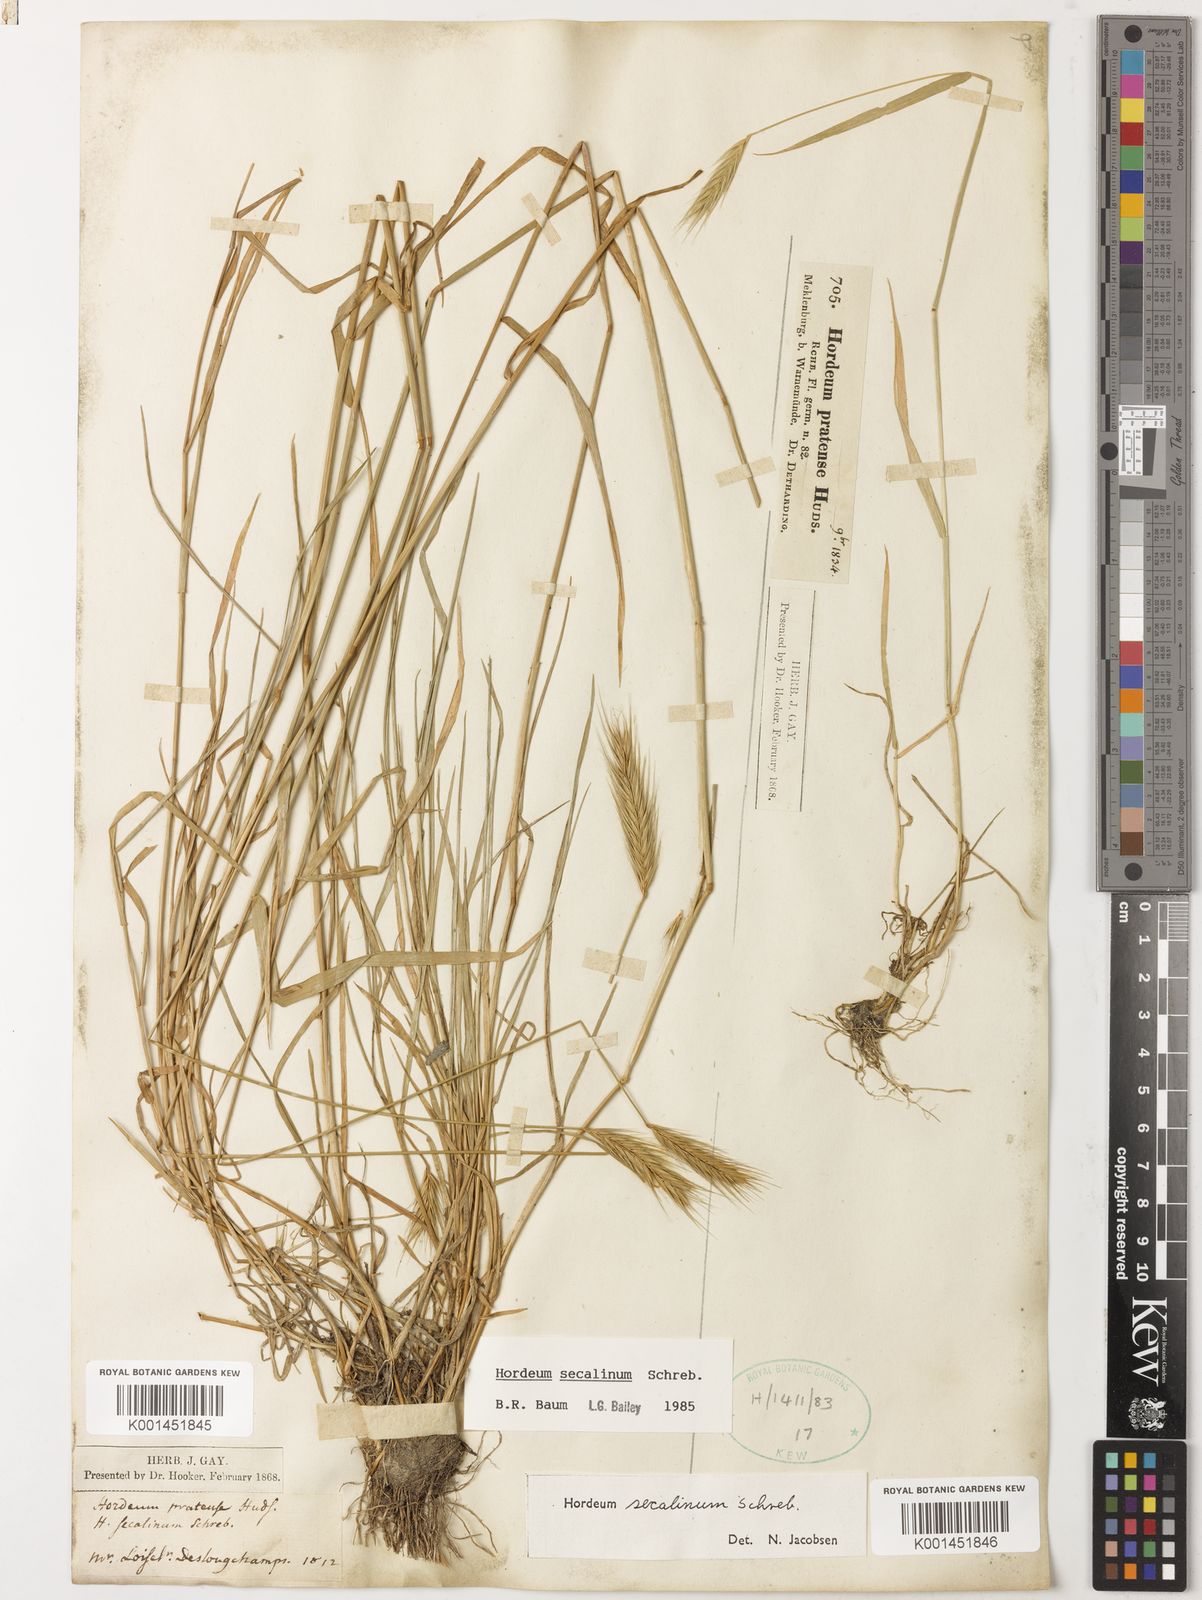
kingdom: Plantae
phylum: Tracheophyta
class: Liliopsida
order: Poales
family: Poaceae
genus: Hordeum
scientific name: Hordeum secalinum
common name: Meadow barley
